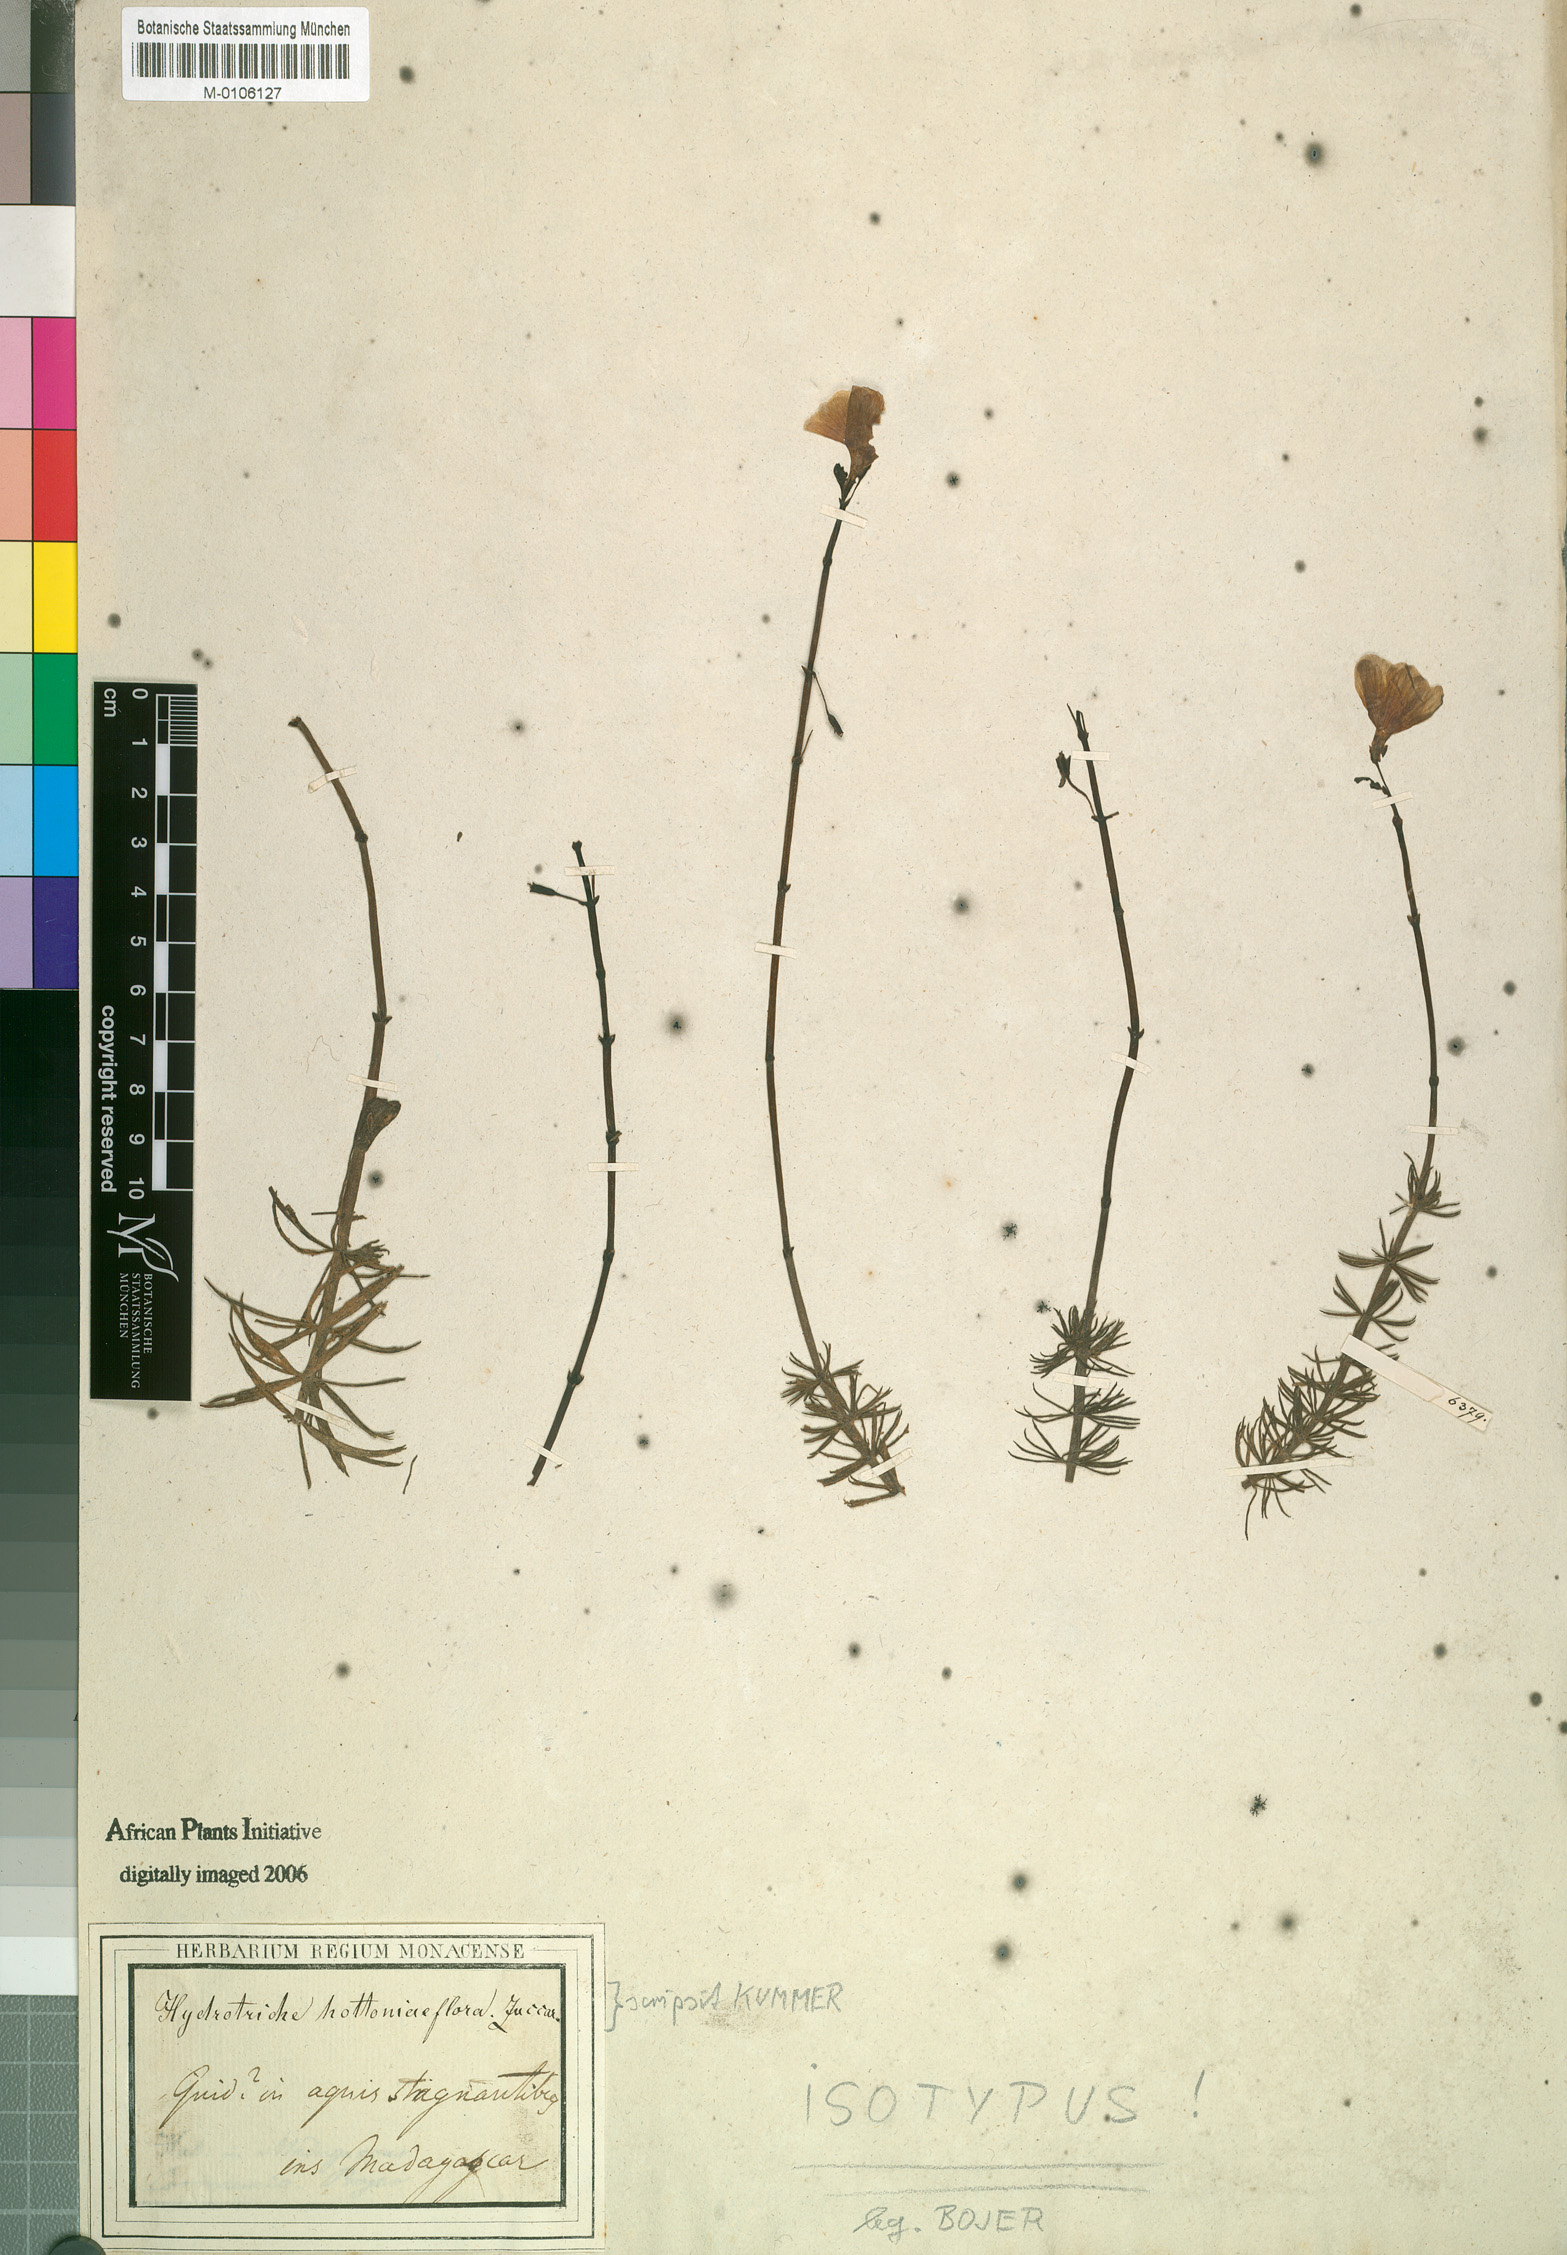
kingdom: Plantae
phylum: Tracheophyta
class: Magnoliopsida
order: Lamiales
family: Plantaginaceae
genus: Hydrotriche
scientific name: Hydrotriche hottoniaeflora
